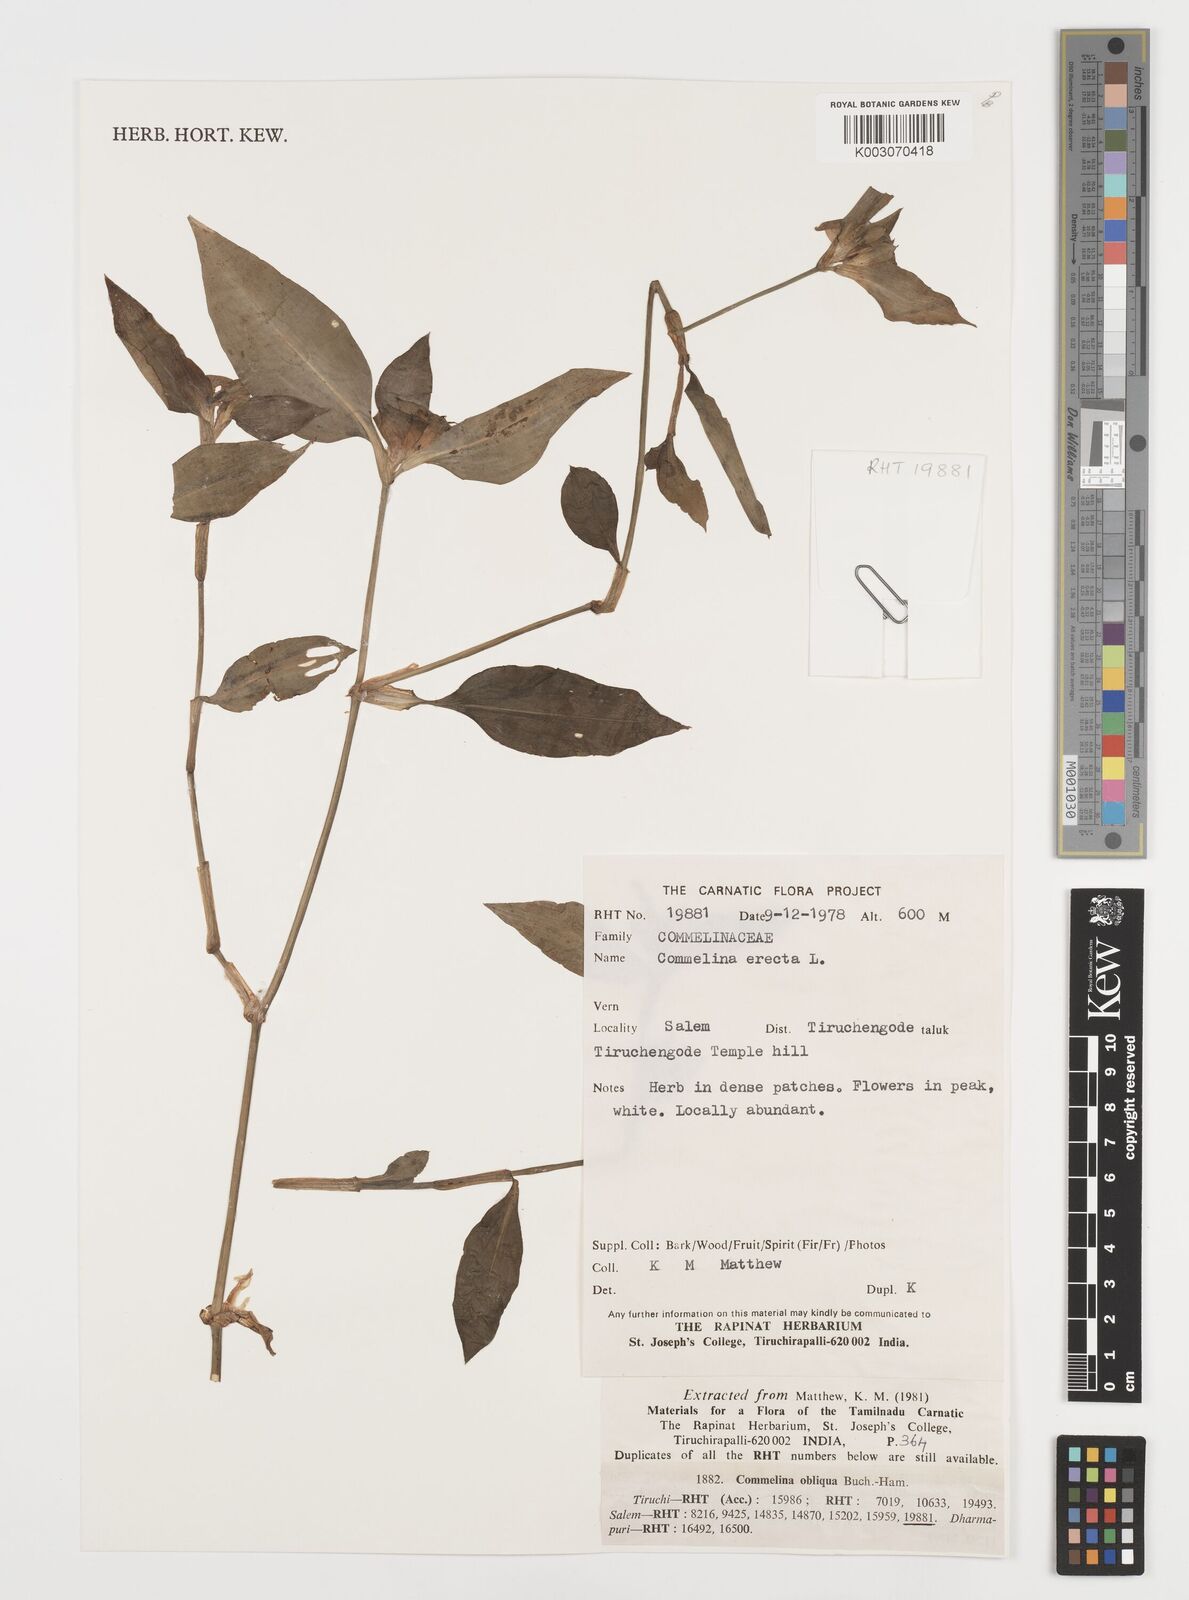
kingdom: Plantae
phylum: Tracheophyta
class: Liliopsida
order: Commelinales
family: Commelinaceae
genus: Commelina
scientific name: Commelina erecta
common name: Blousel blommetjie
